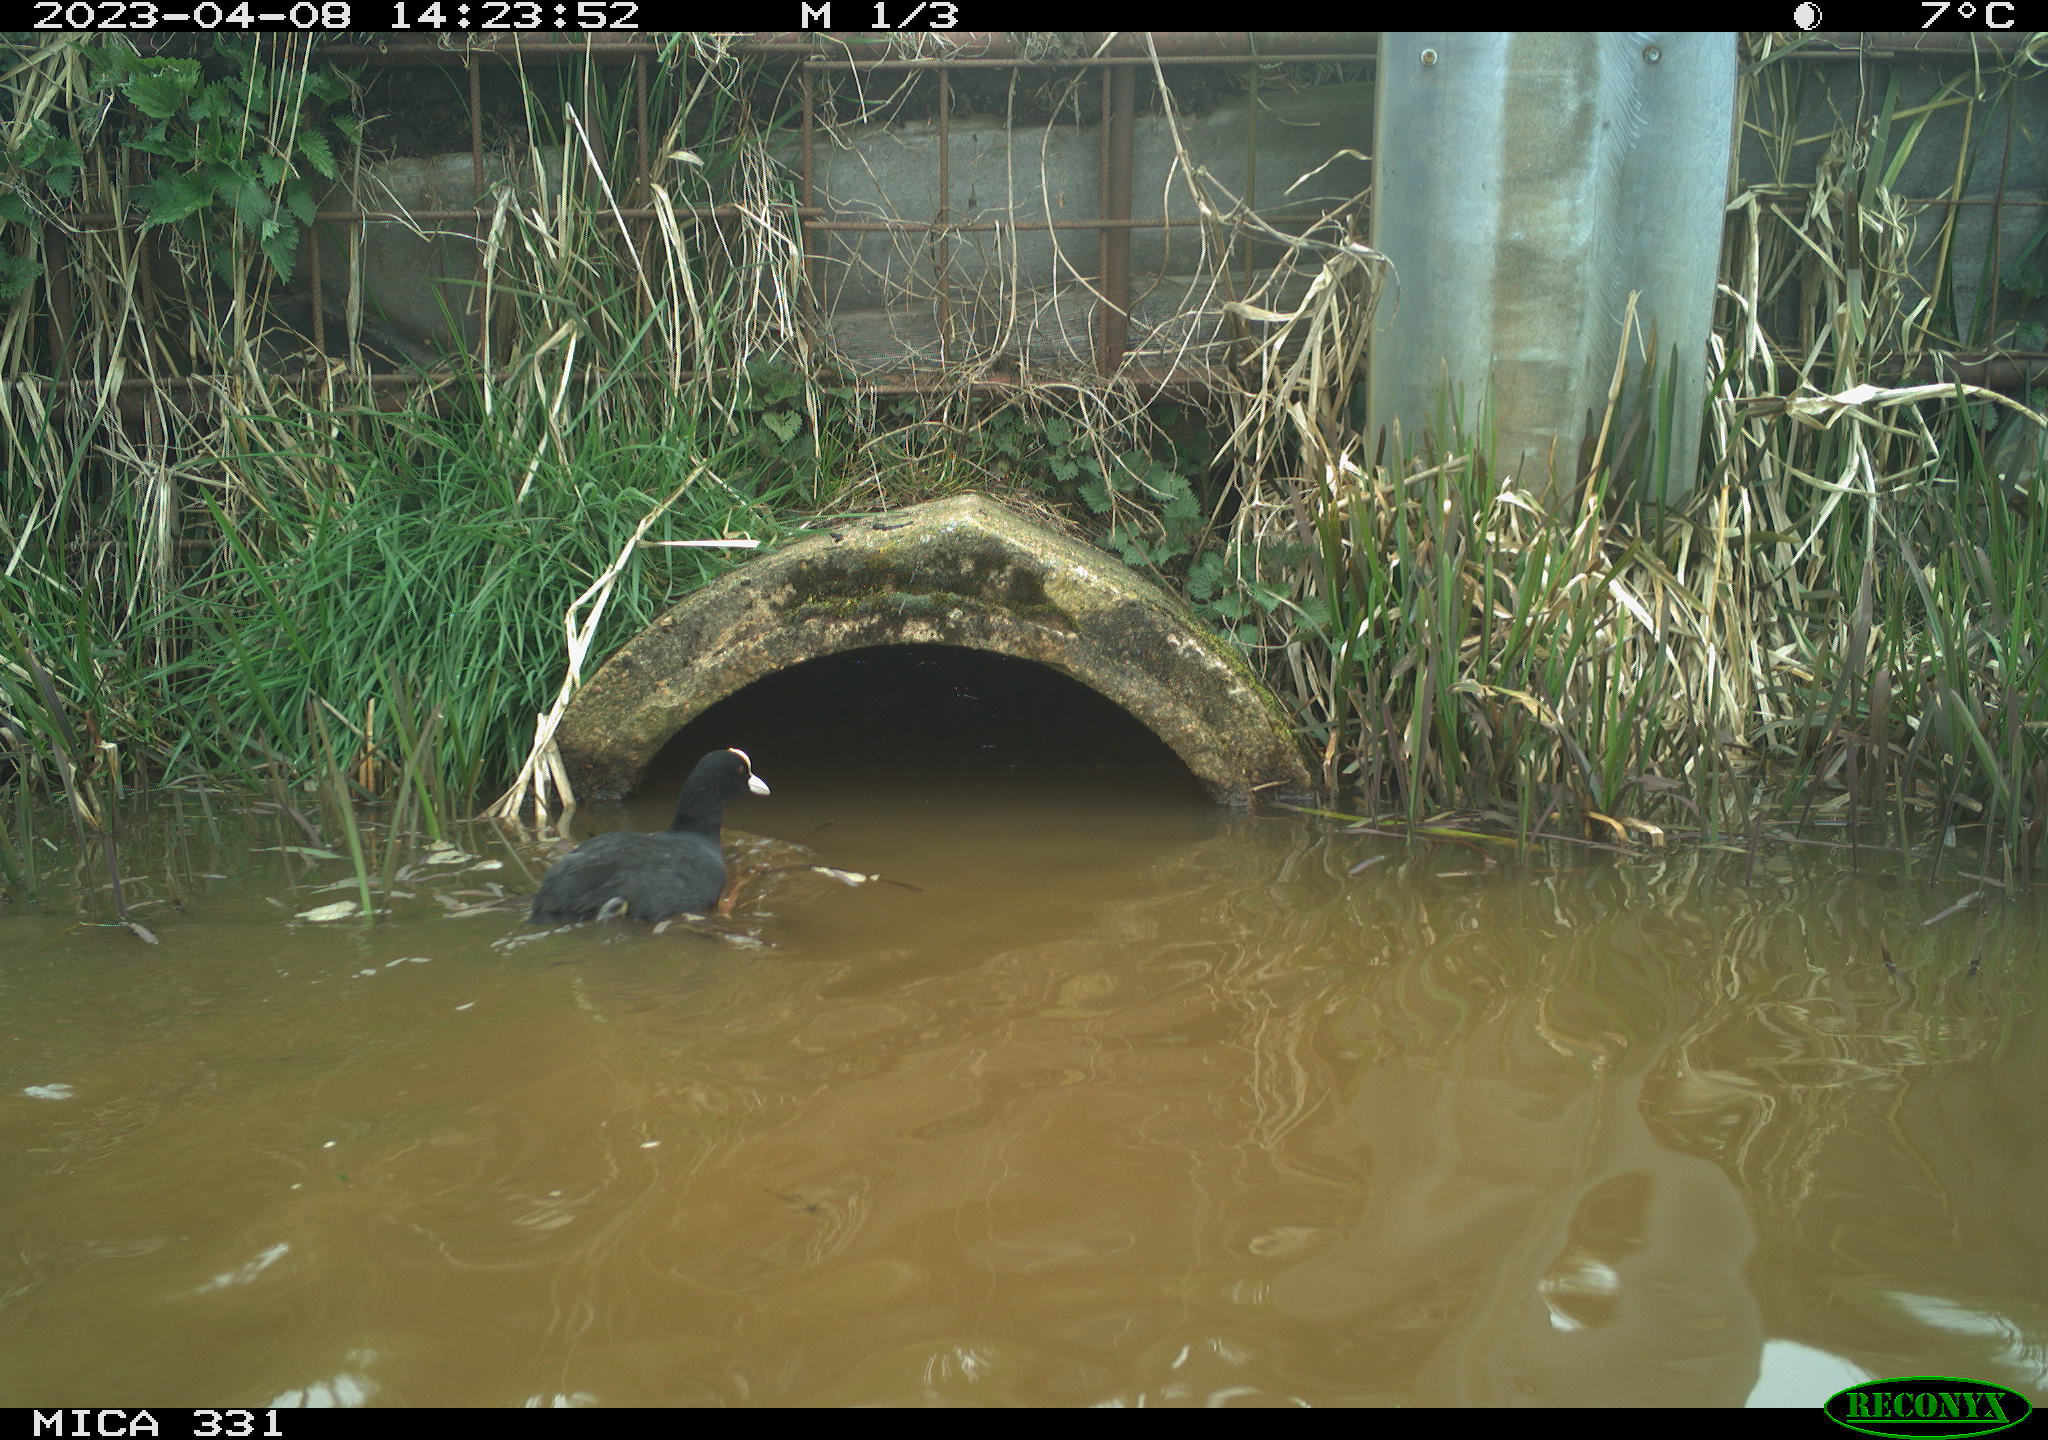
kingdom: Animalia
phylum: Chordata
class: Aves
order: Gruiformes
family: Rallidae
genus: Gallinula
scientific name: Gallinula chloropus
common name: Common moorhen
